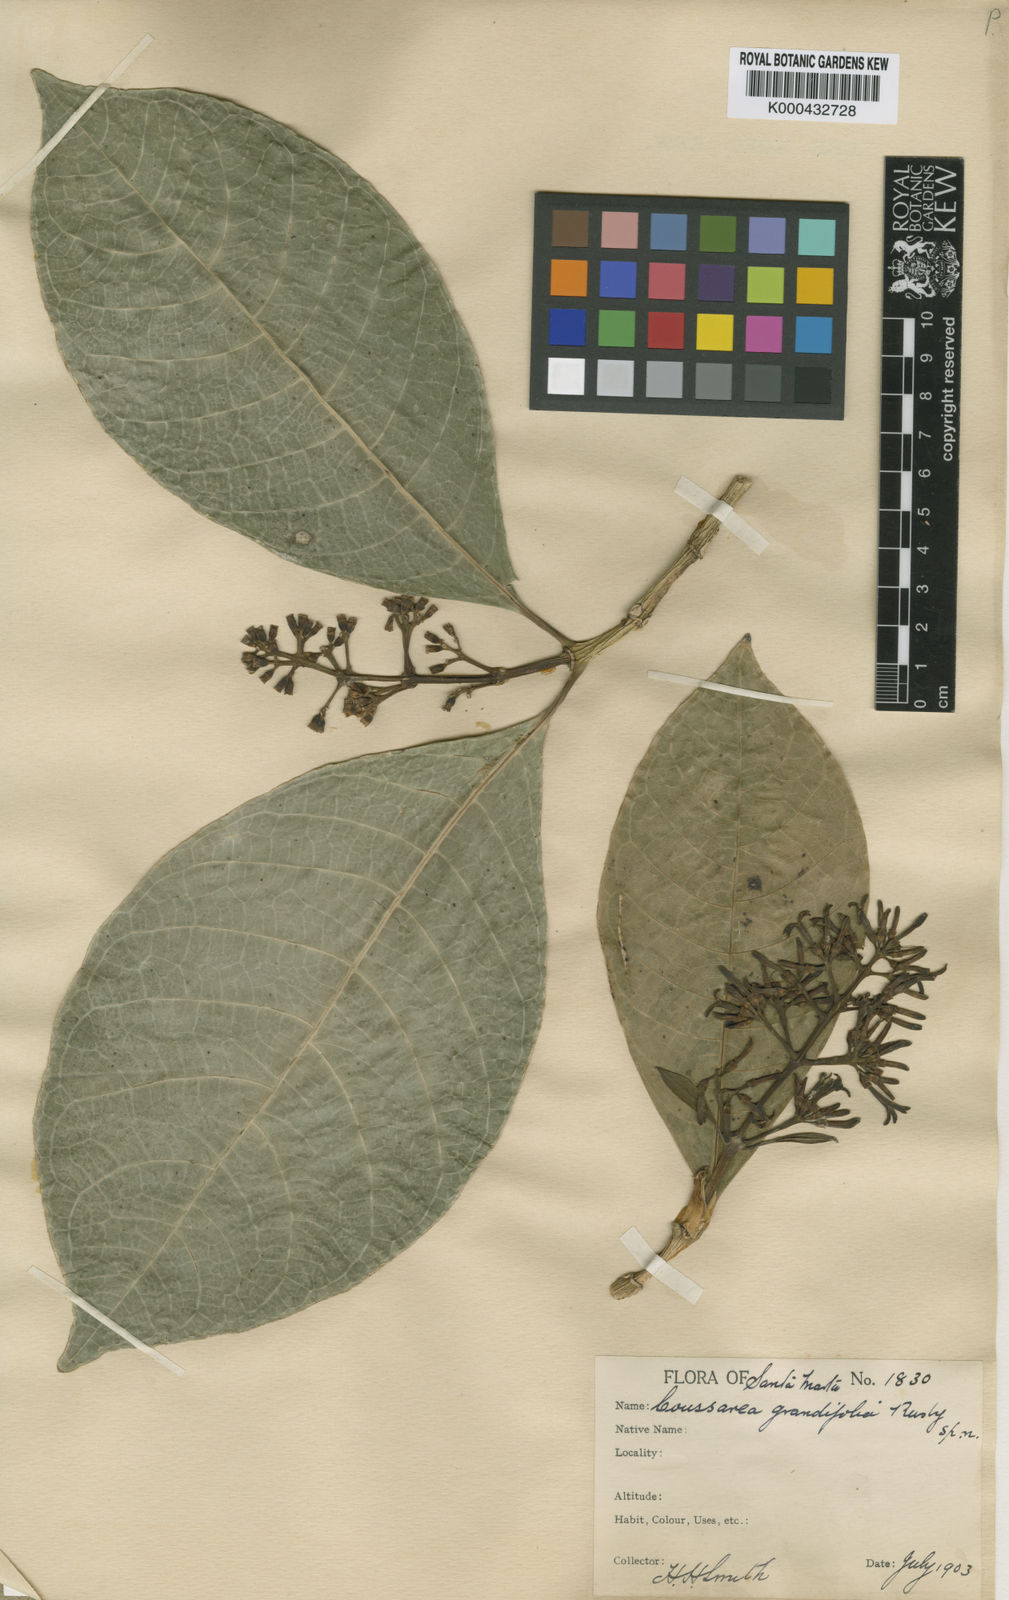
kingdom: Plantae
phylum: Tracheophyta
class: Magnoliopsida
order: Gentianales
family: Rubiaceae
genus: Coussarea
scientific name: Coussarea grandifolia
